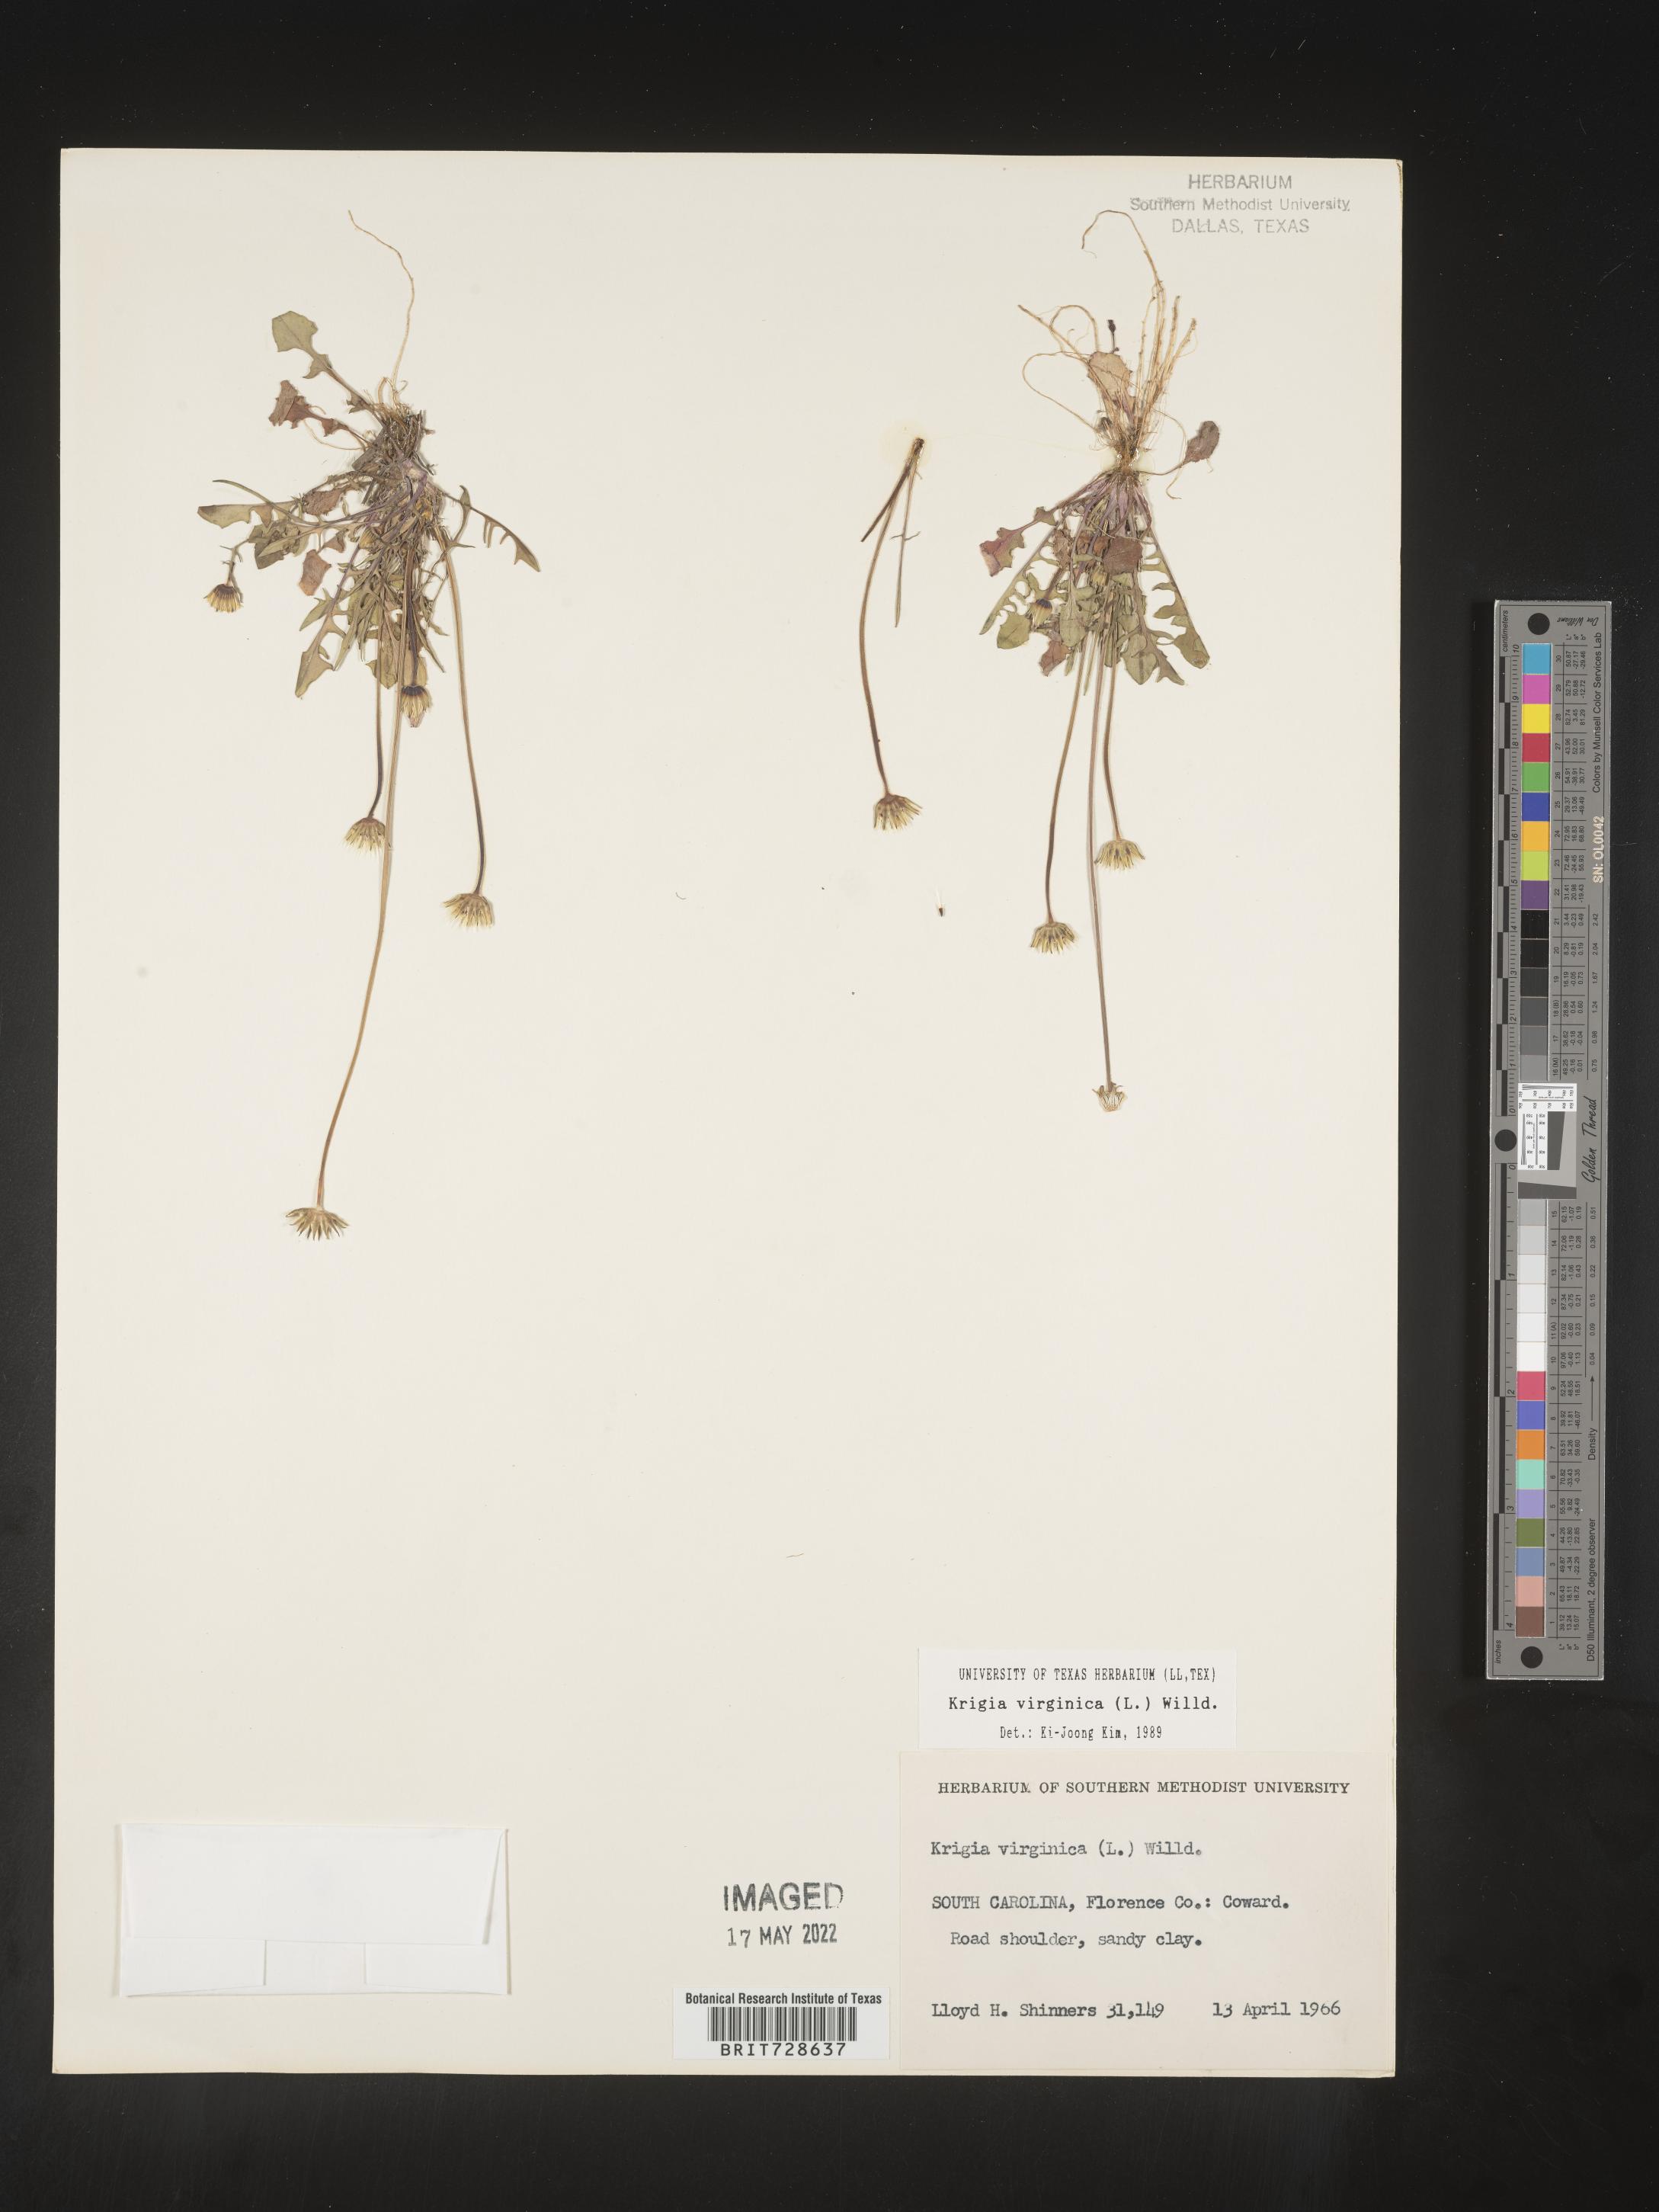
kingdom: Plantae
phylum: Tracheophyta
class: Magnoliopsida
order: Asterales
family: Asteraceae
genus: Krigia
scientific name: Krigia virginica
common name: Virginia dwarf-dandelion
